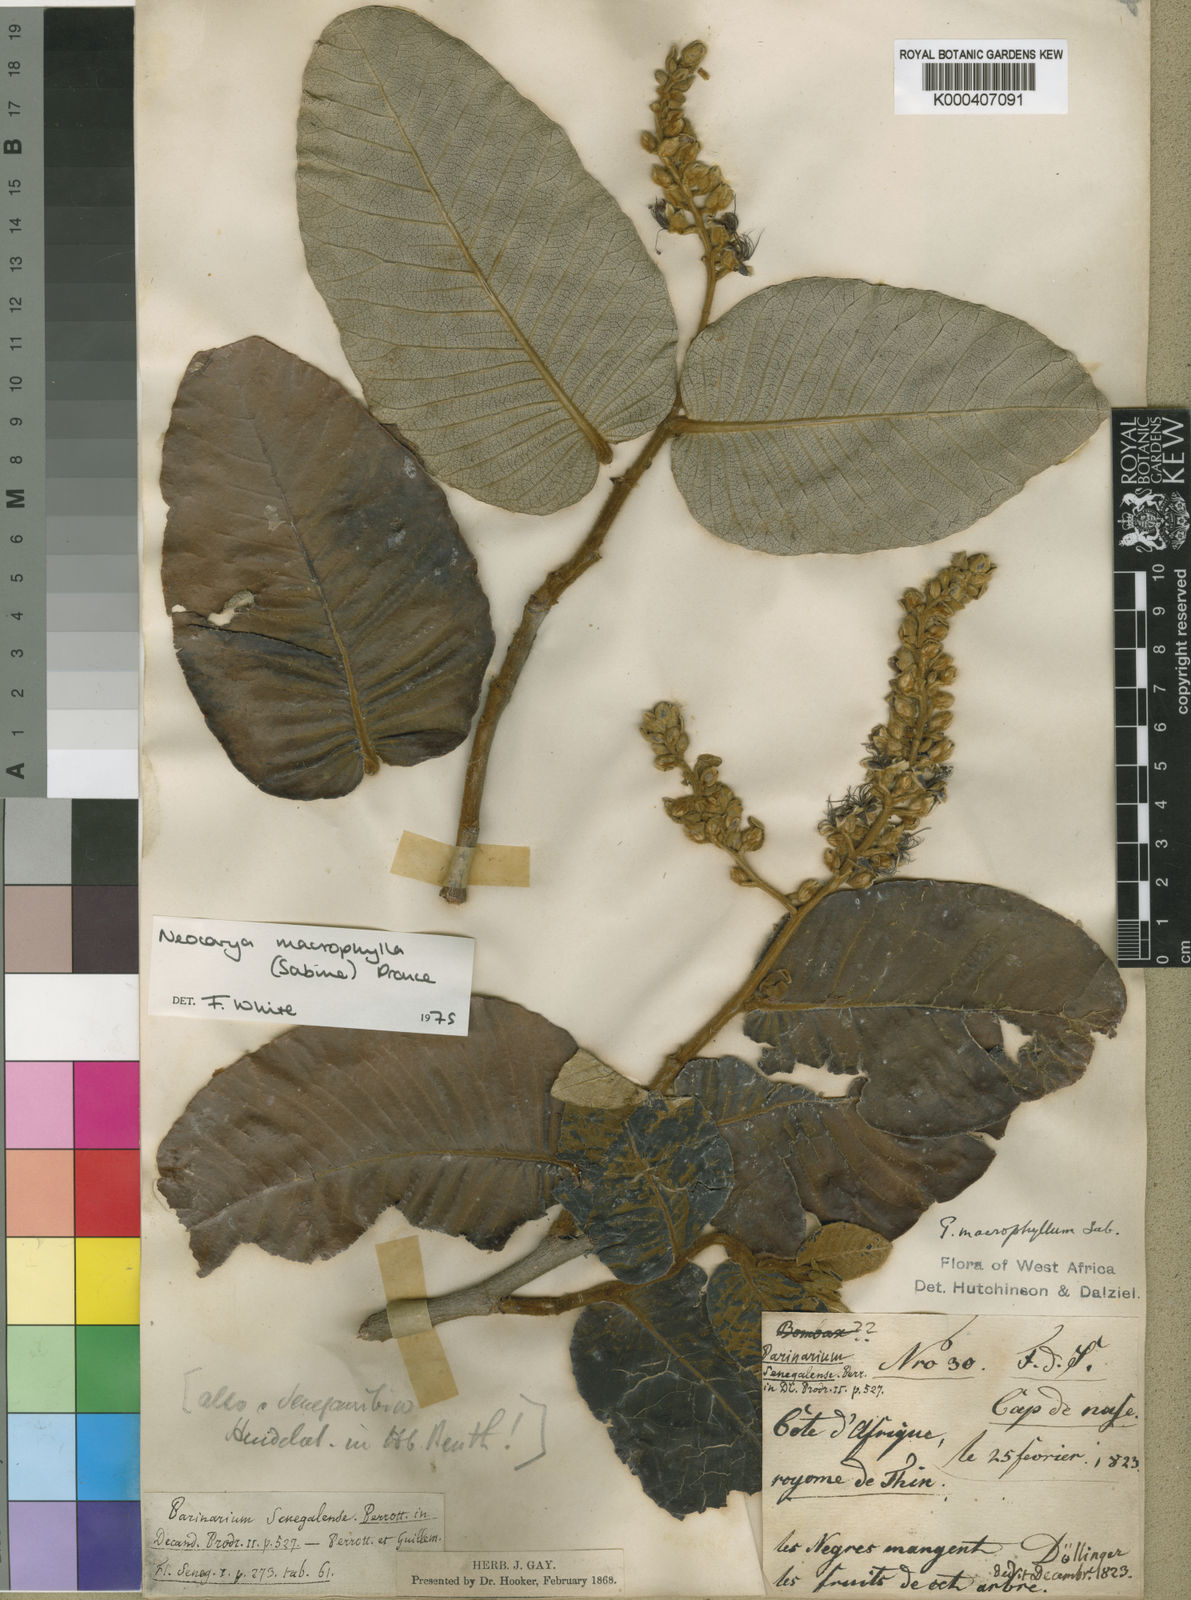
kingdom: Plantae
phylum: Tracheophyta
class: Magnoliopsida
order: Malpighiales
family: Chrysobalanaceae
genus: Neocarya
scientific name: Neocarya
